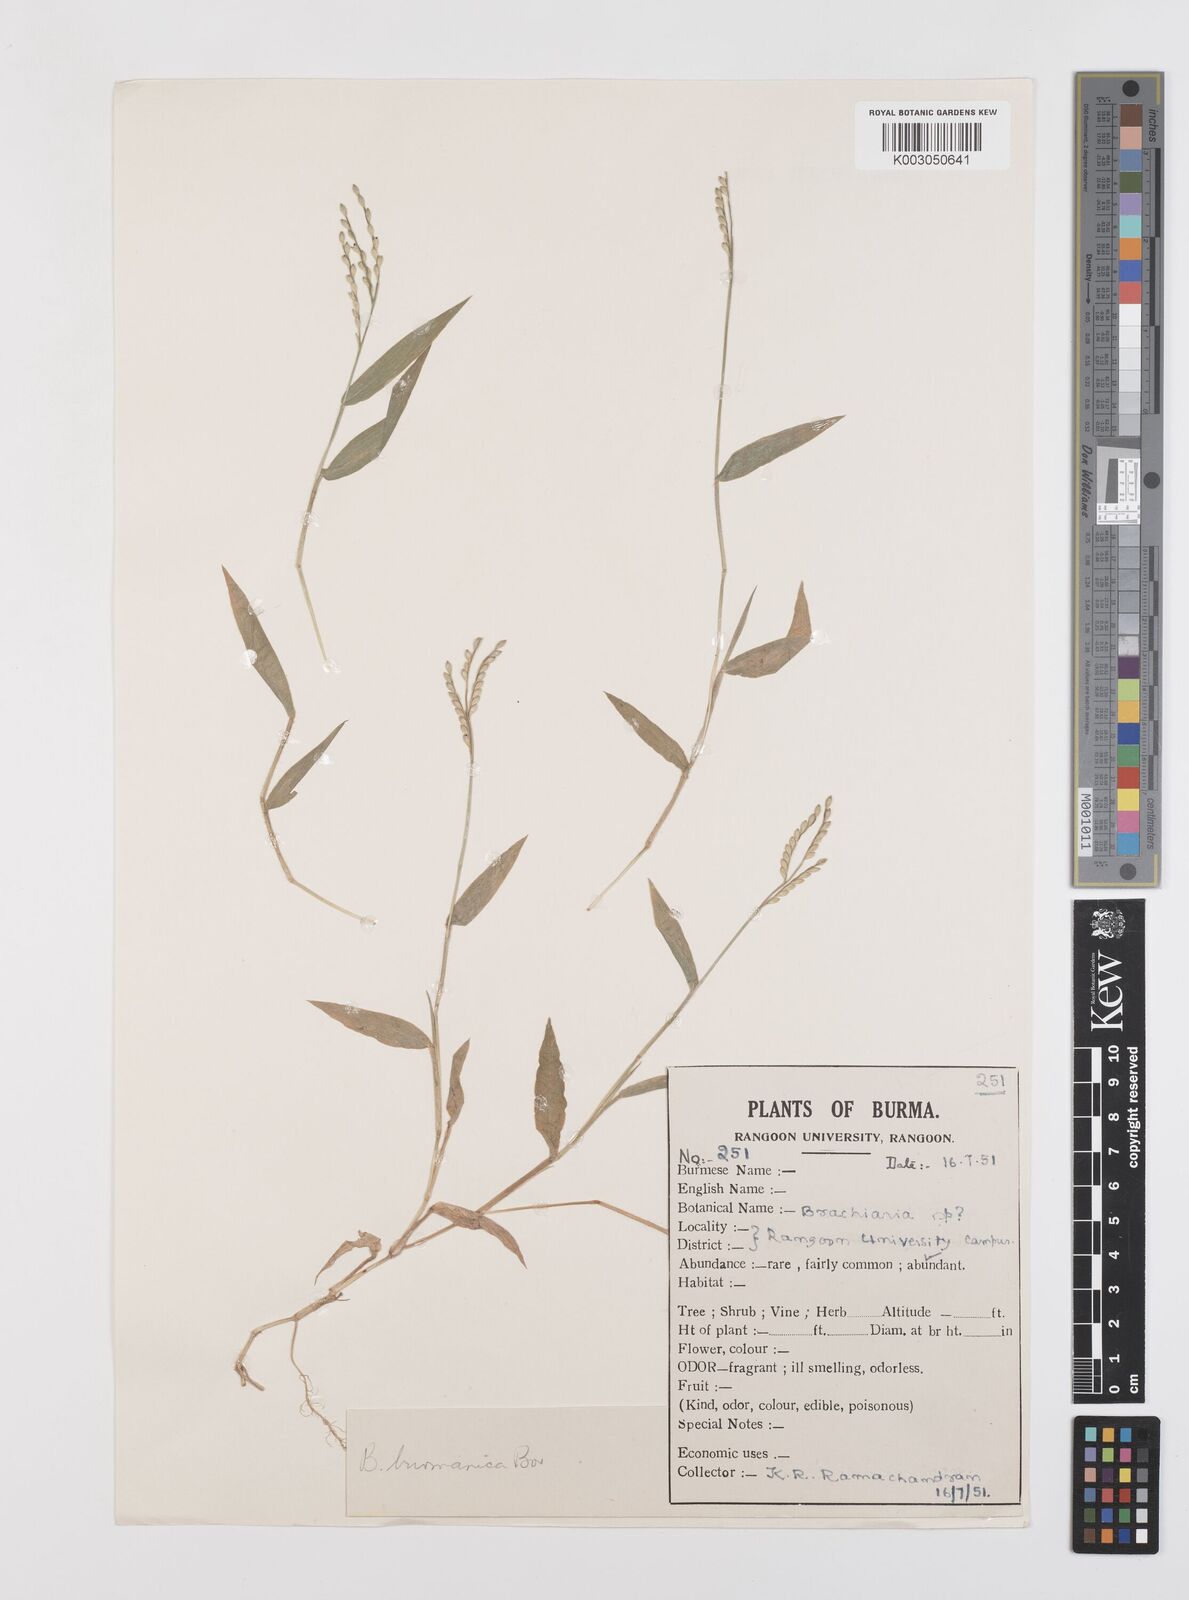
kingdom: Plantae
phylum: Tracheophyta
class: Liliopsida
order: Poales
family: Poaceae
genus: Urochloa
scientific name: Urochloa burmanica
